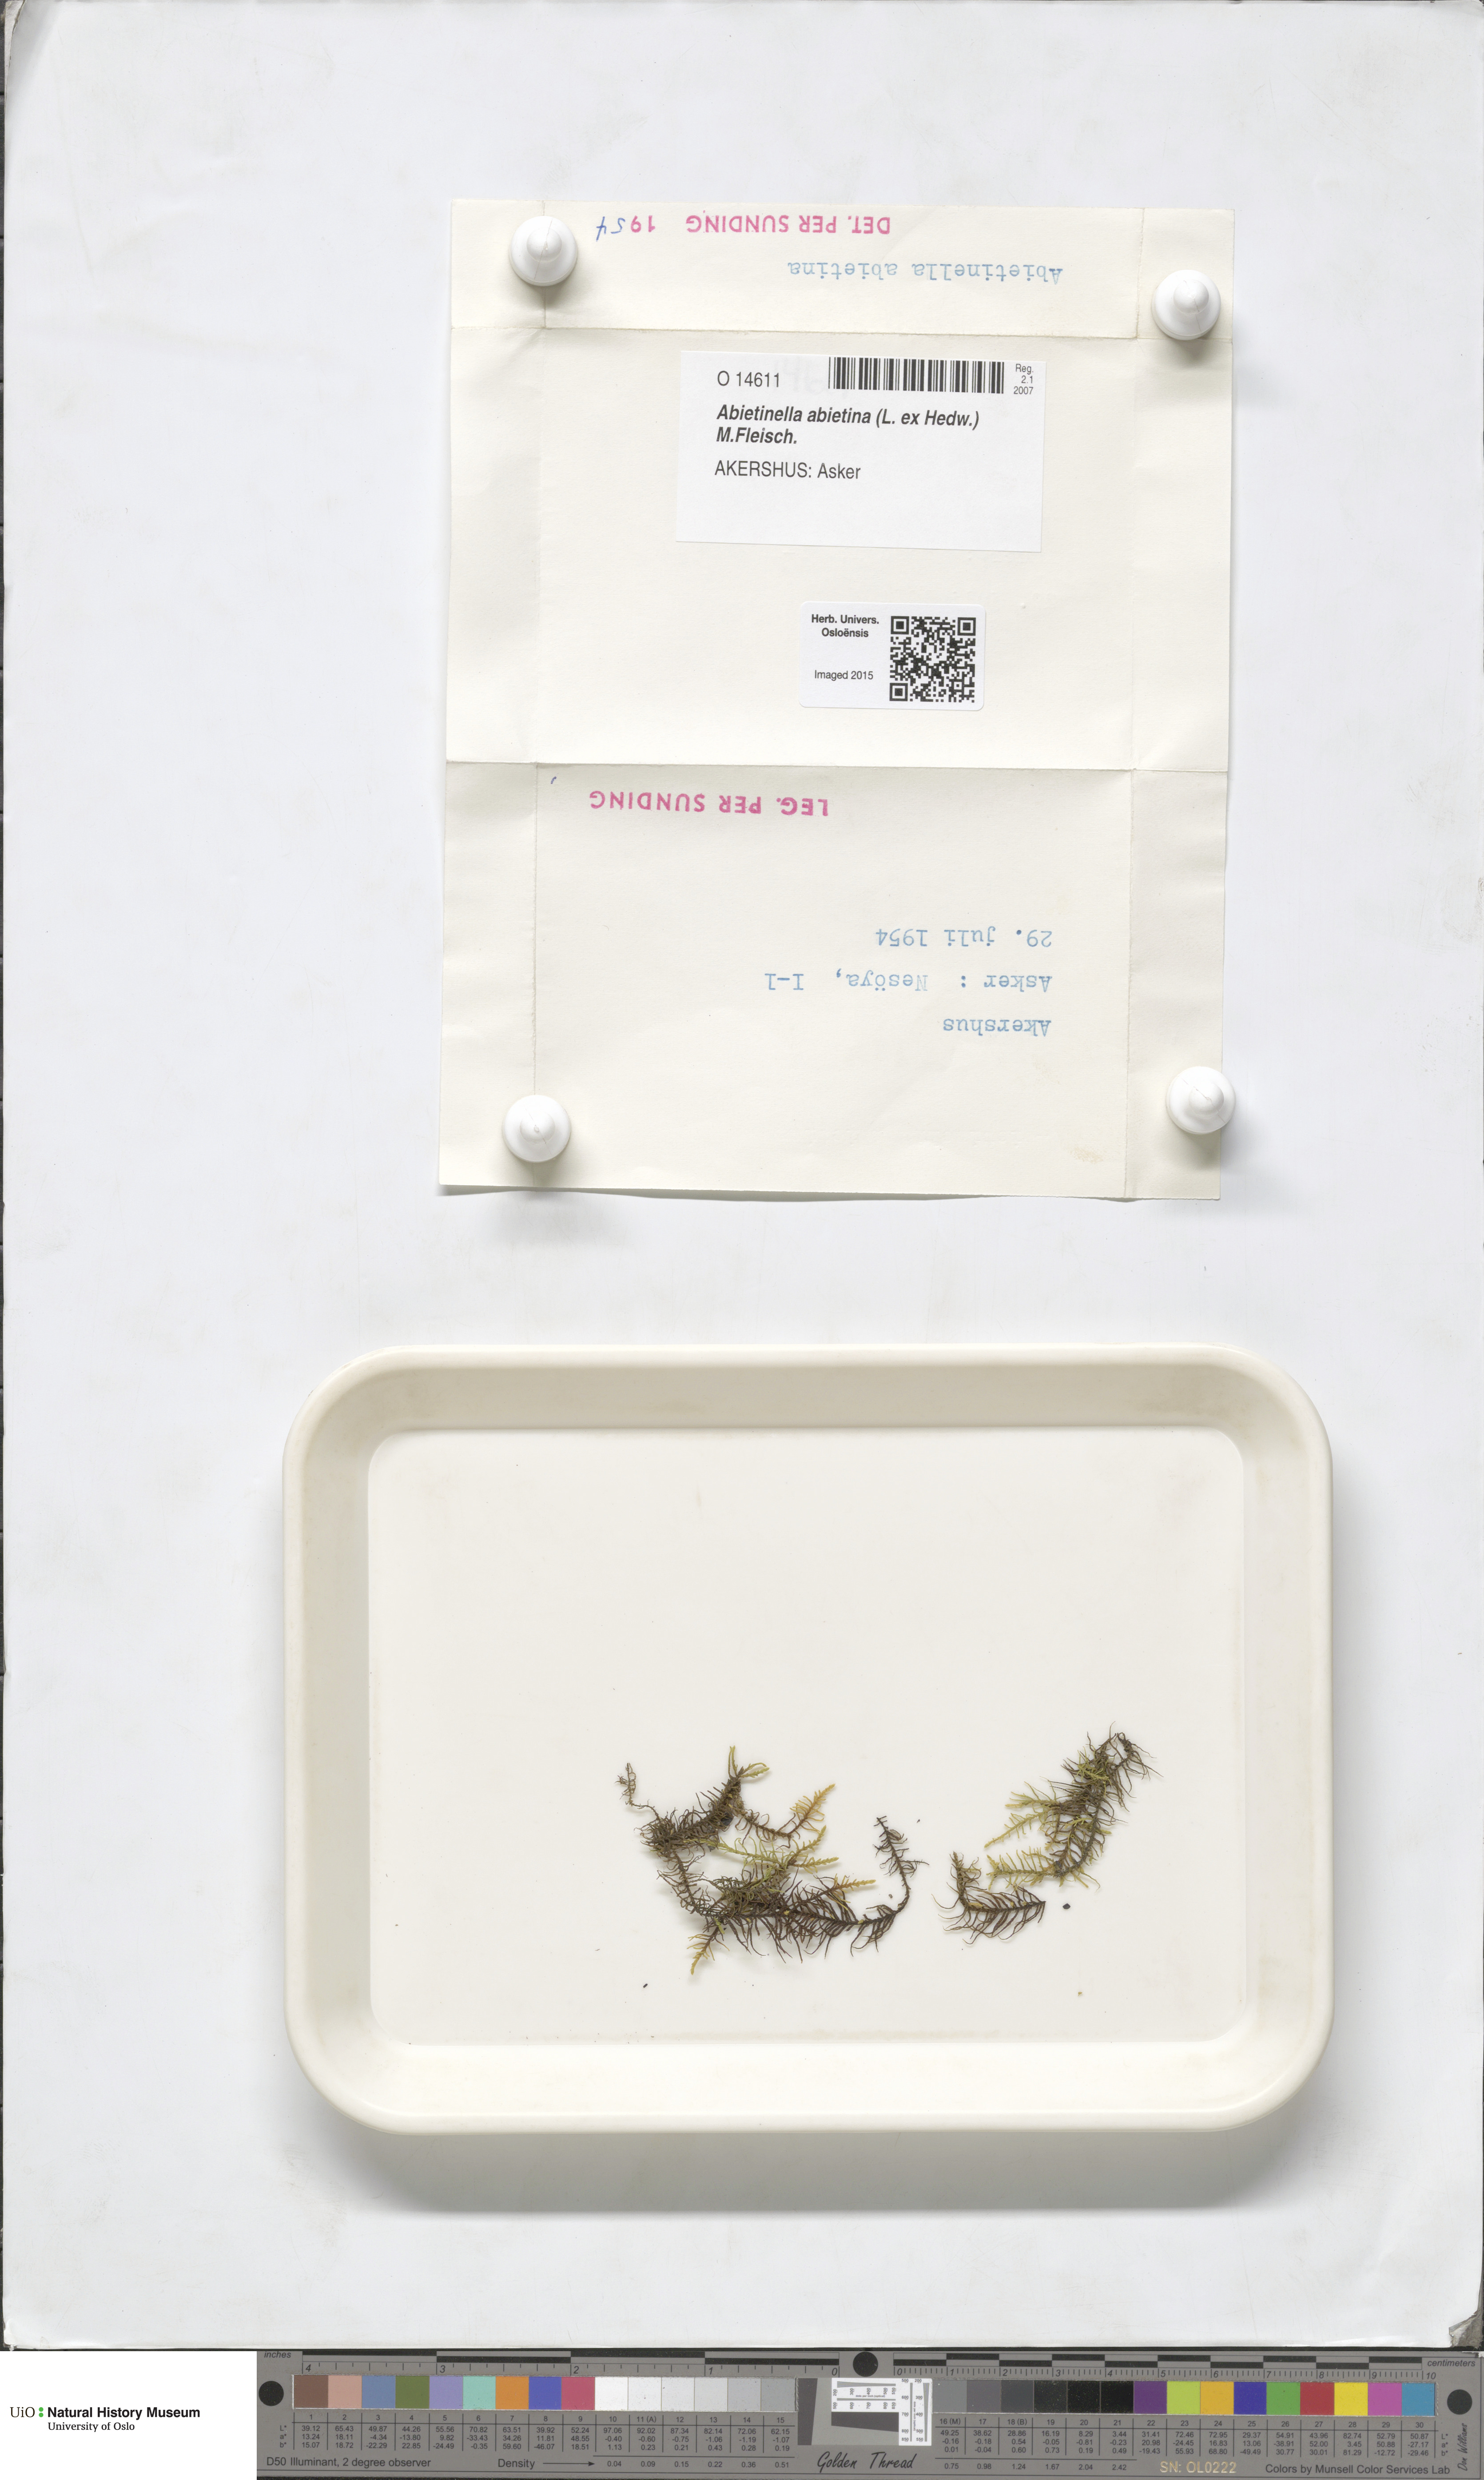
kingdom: Plantae
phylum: Bryophyta
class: Bryopsida
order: Hypnales
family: Thuidiaceae
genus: Abietinella
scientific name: Abietinella abietina
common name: Wiry fern moss
